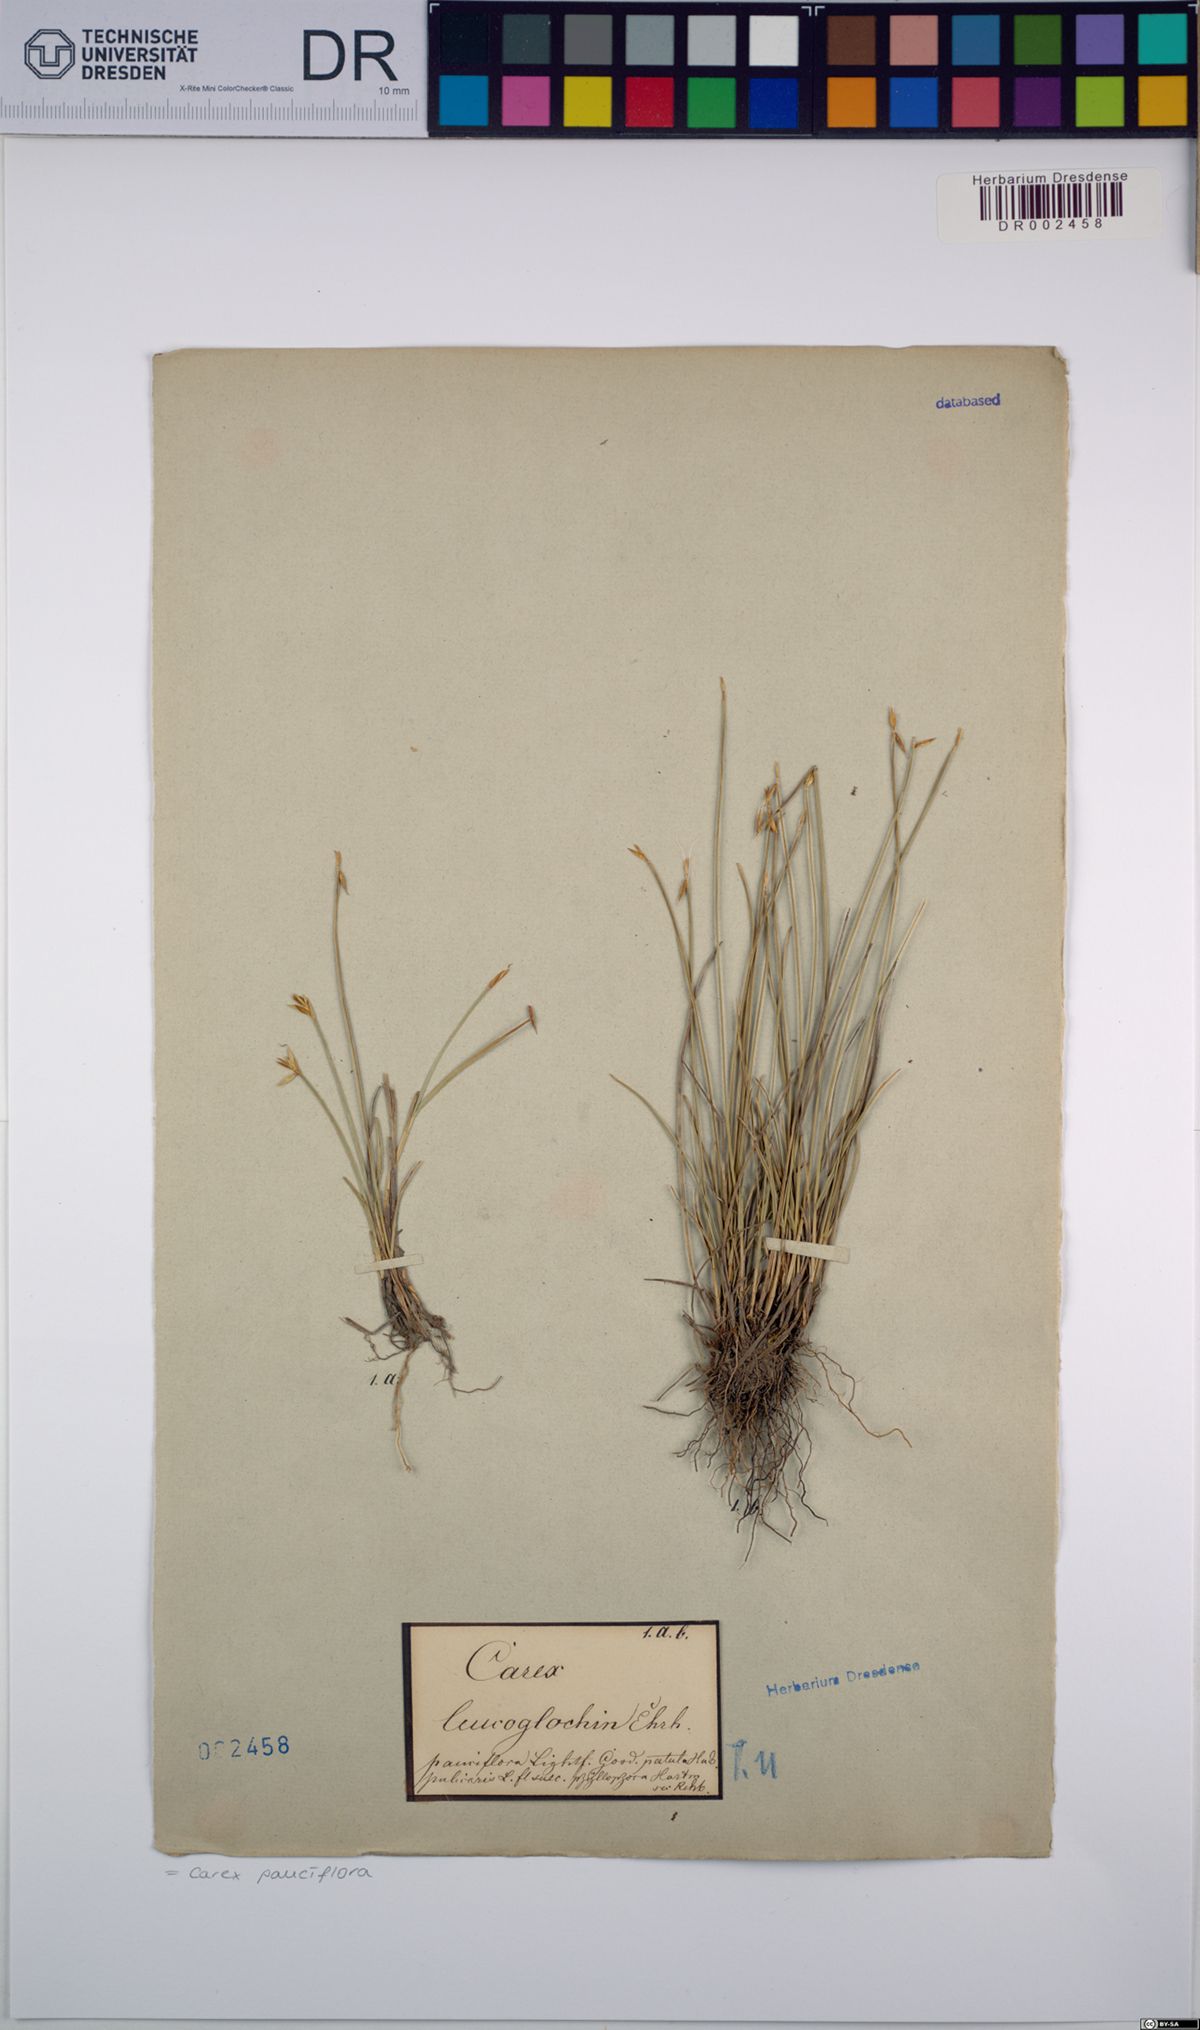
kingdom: Plantae
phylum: Tracheophyta
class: Liliopsida
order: Poales
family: Cyperaceae
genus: Carex
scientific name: Carex pauciflora
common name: Few-flowered sedge
